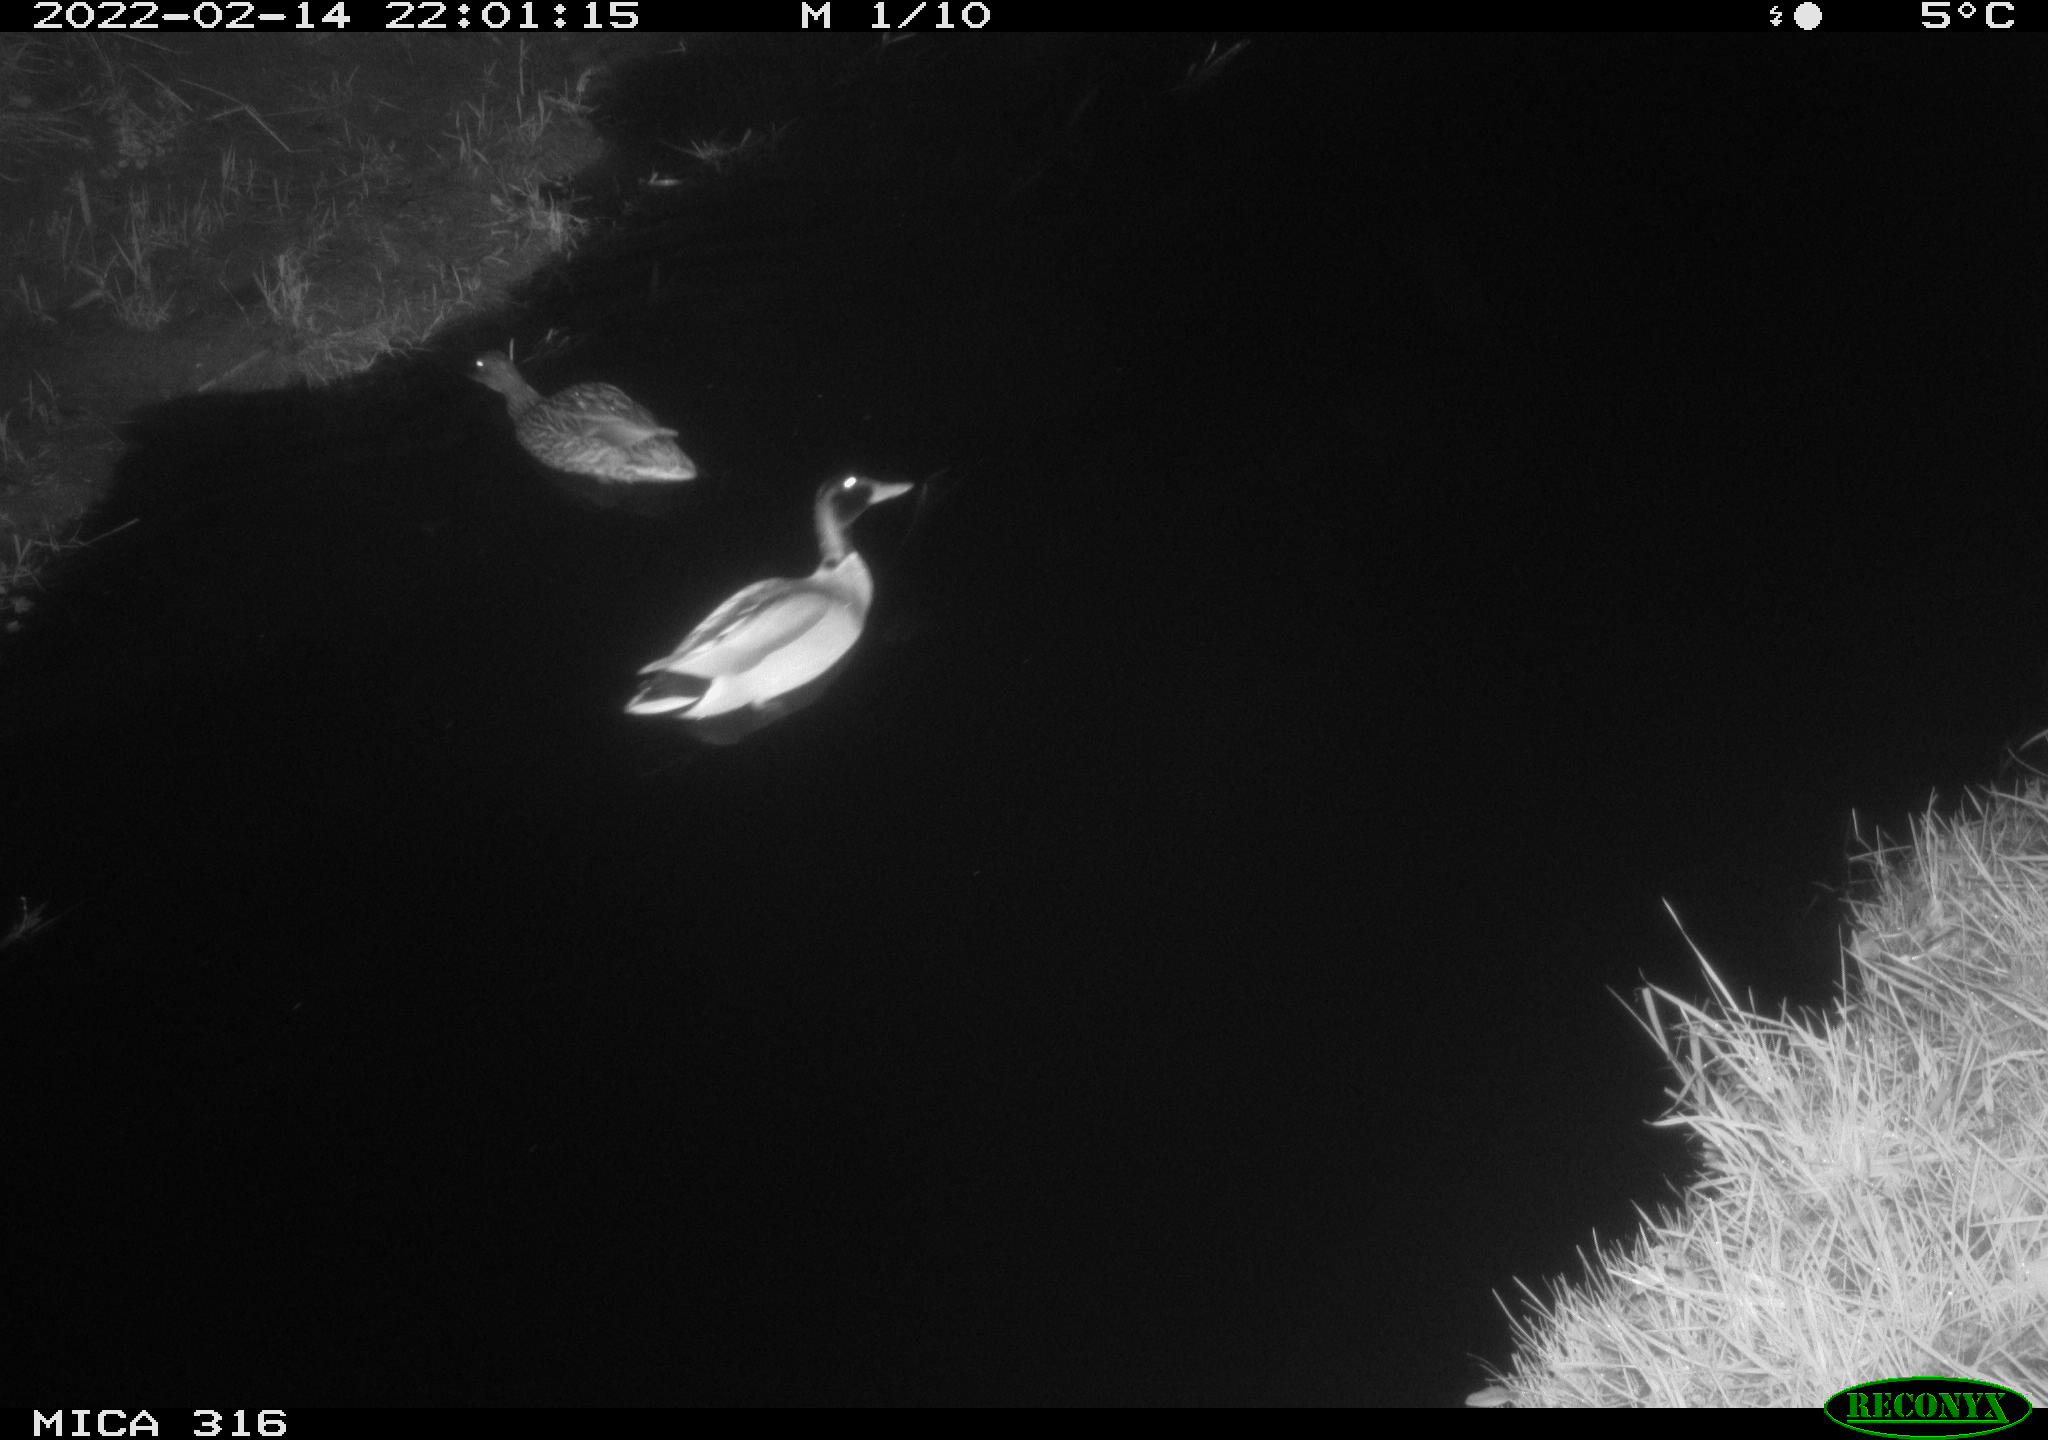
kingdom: Animalia
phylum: Chordata
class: Aves
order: Anseriformes
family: Anatidae
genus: Anas
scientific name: Anas platyrhynchos
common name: Mallard
